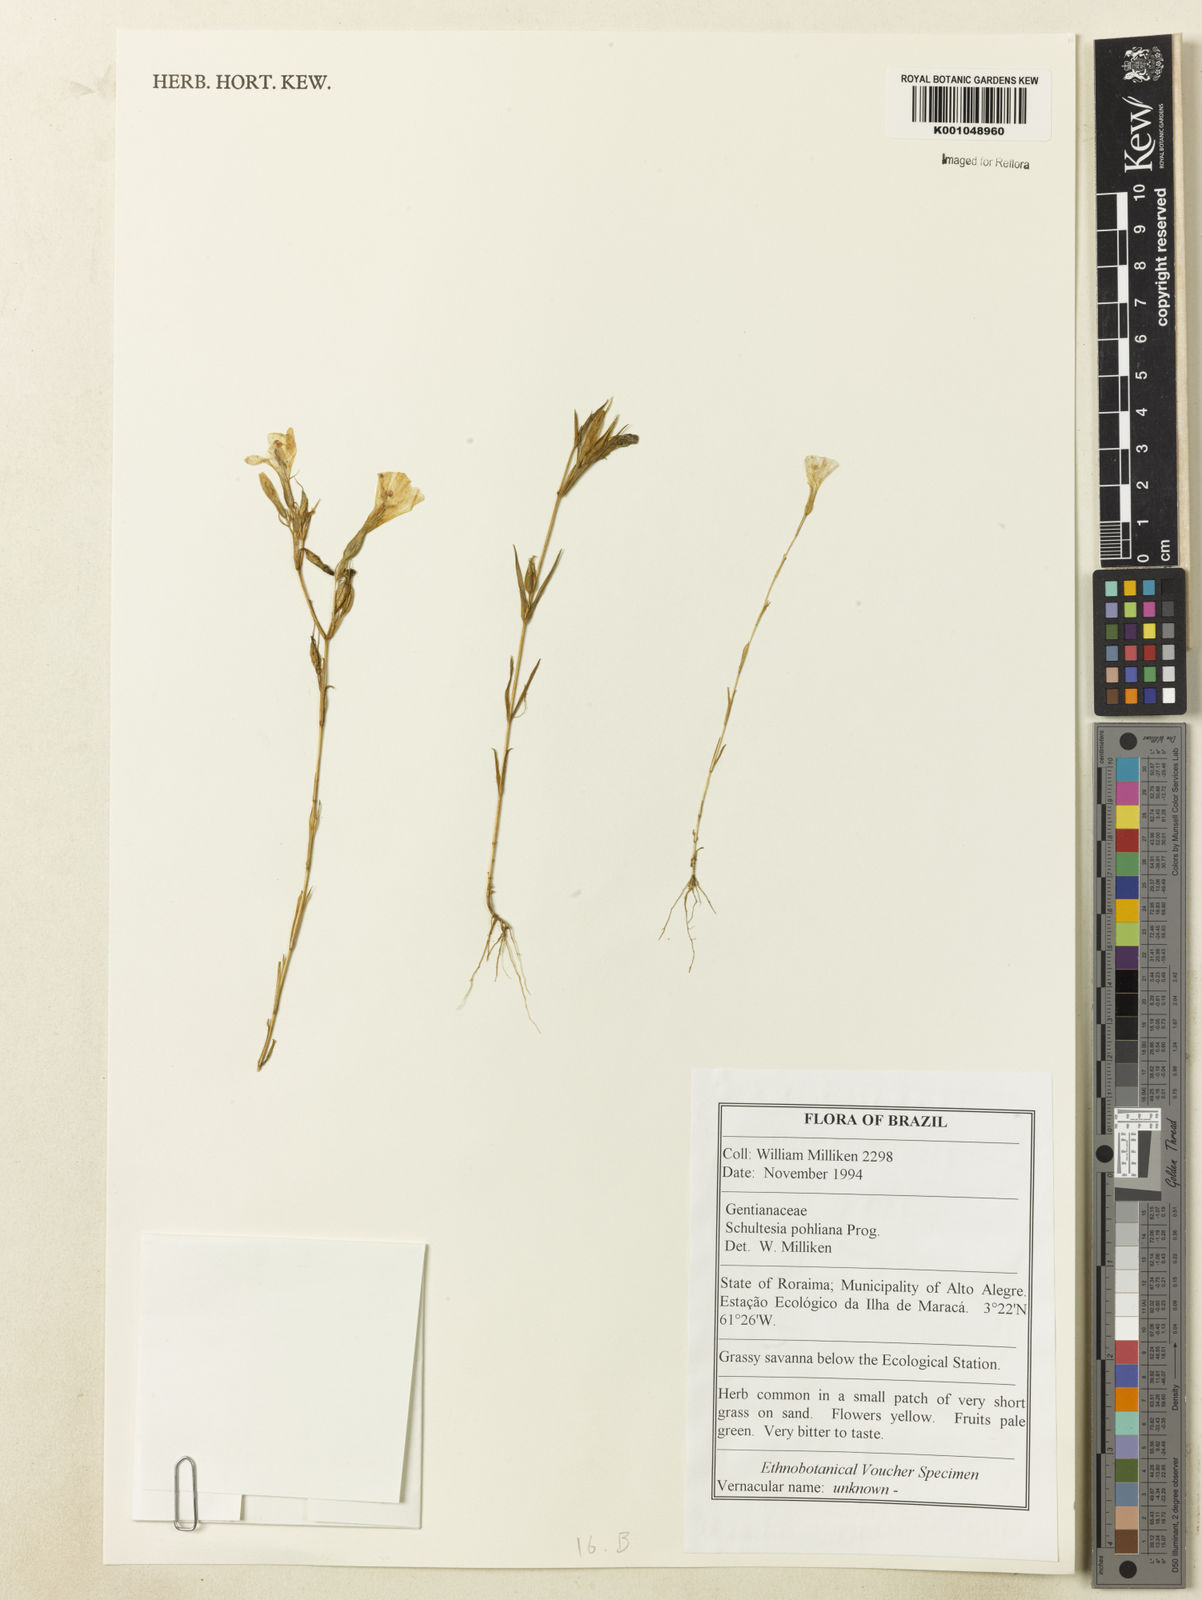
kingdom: Plantae
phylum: Tracheophyta
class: Magnoliopsida
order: Gentianales
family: Gentianaceae
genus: Schultesia
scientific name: Schultesia pohliana
